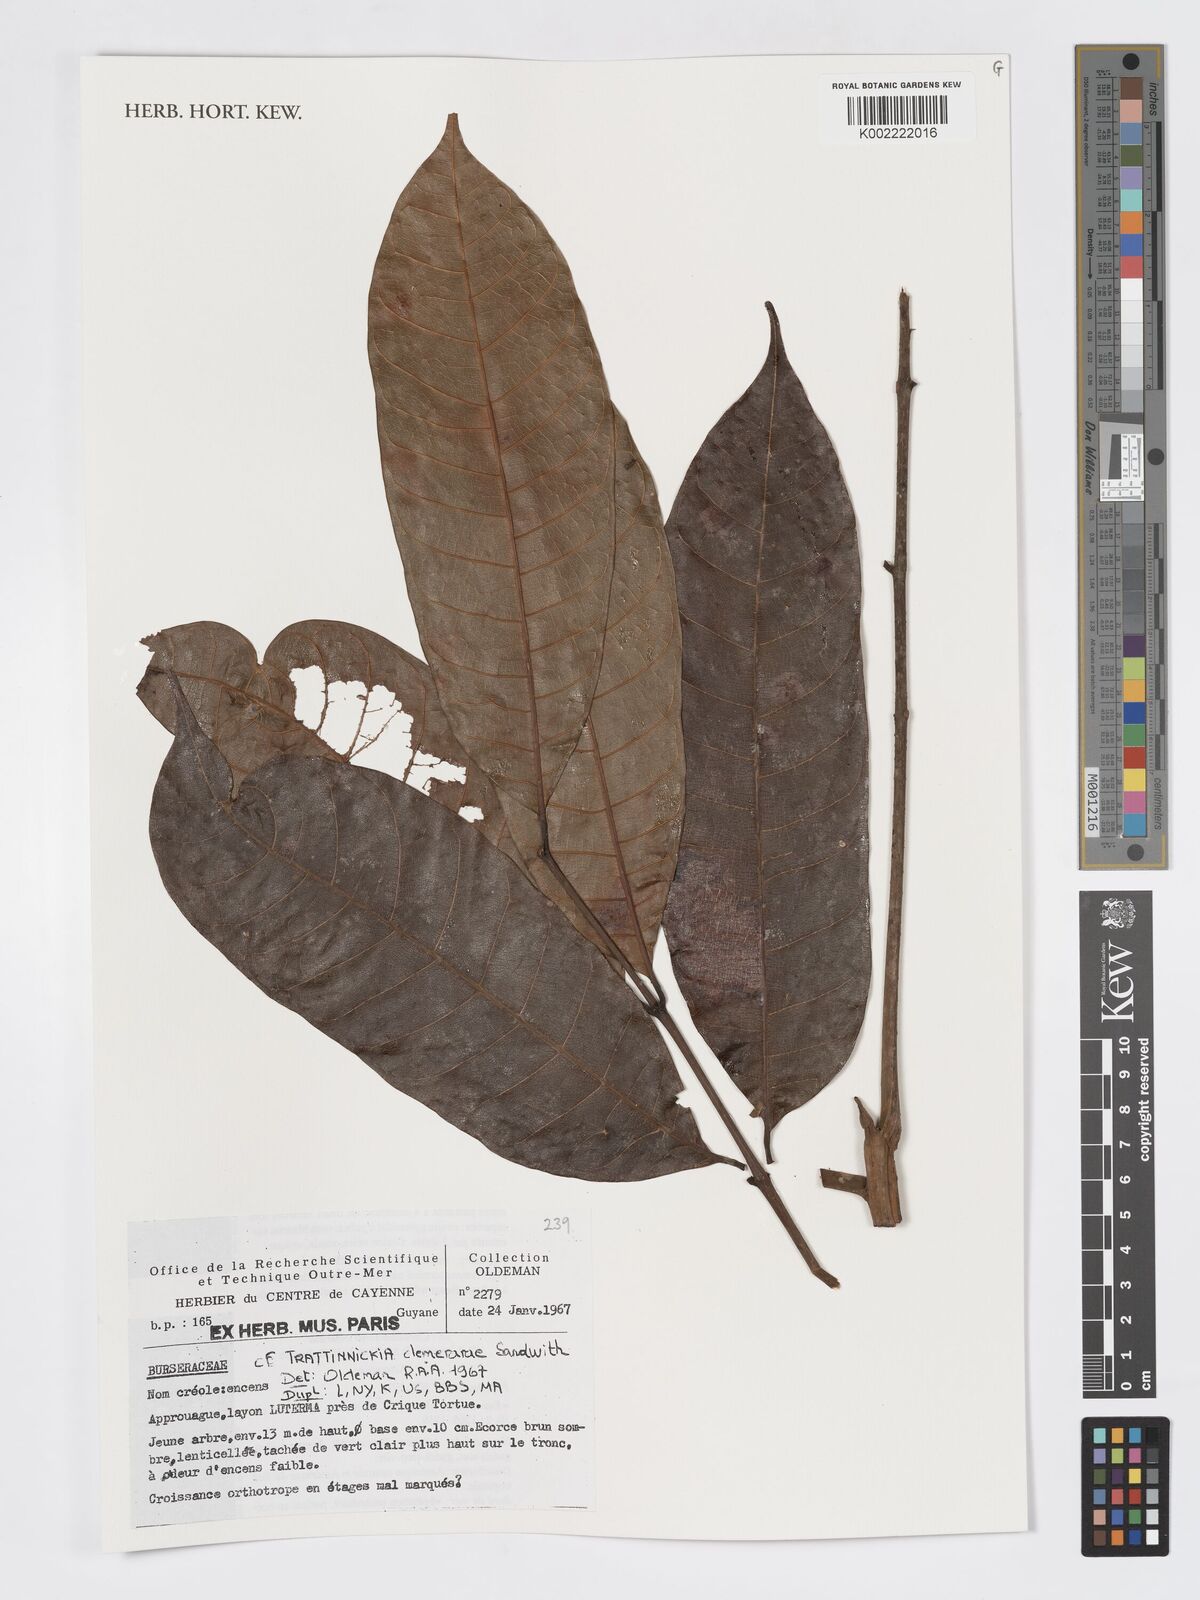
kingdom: Plantae
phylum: Tracheophyta
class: Magnoliopsida
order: Sapindales
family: Burseraceae
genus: Trattinnickia
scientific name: Trattinnickia demerarae
